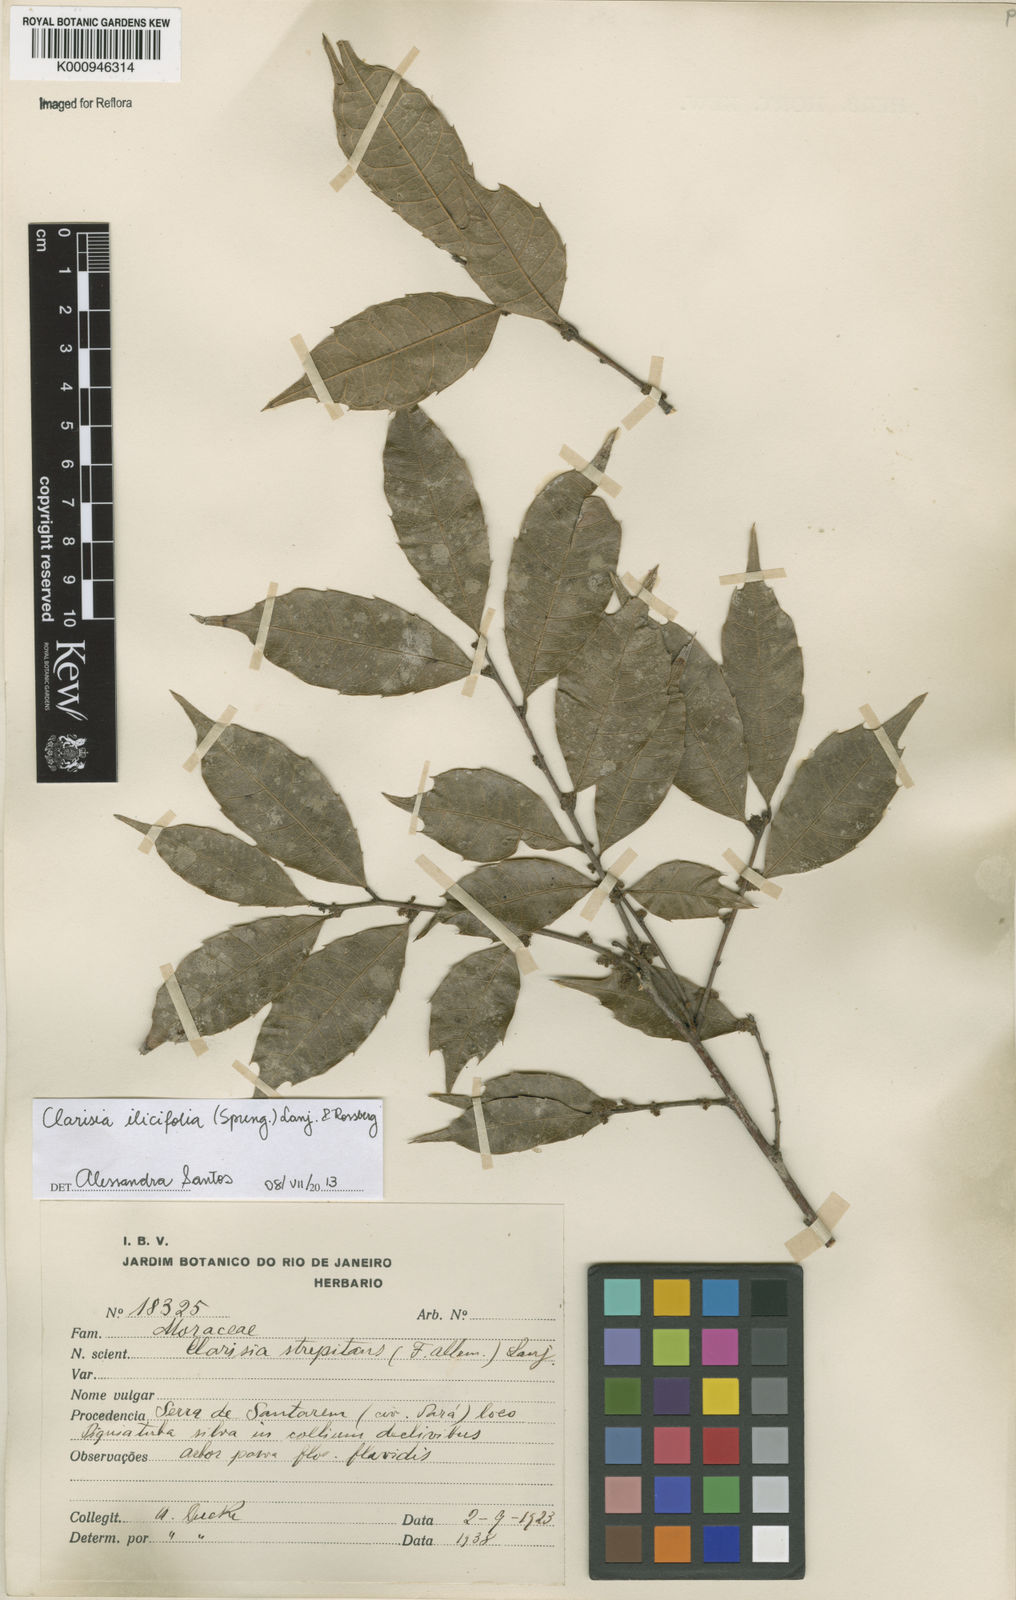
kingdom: Plantae
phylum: Tracheophyta
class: Magnoliopsida
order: Rosales
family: Moraceae
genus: Clarisia
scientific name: Clarisia ilicifolia
